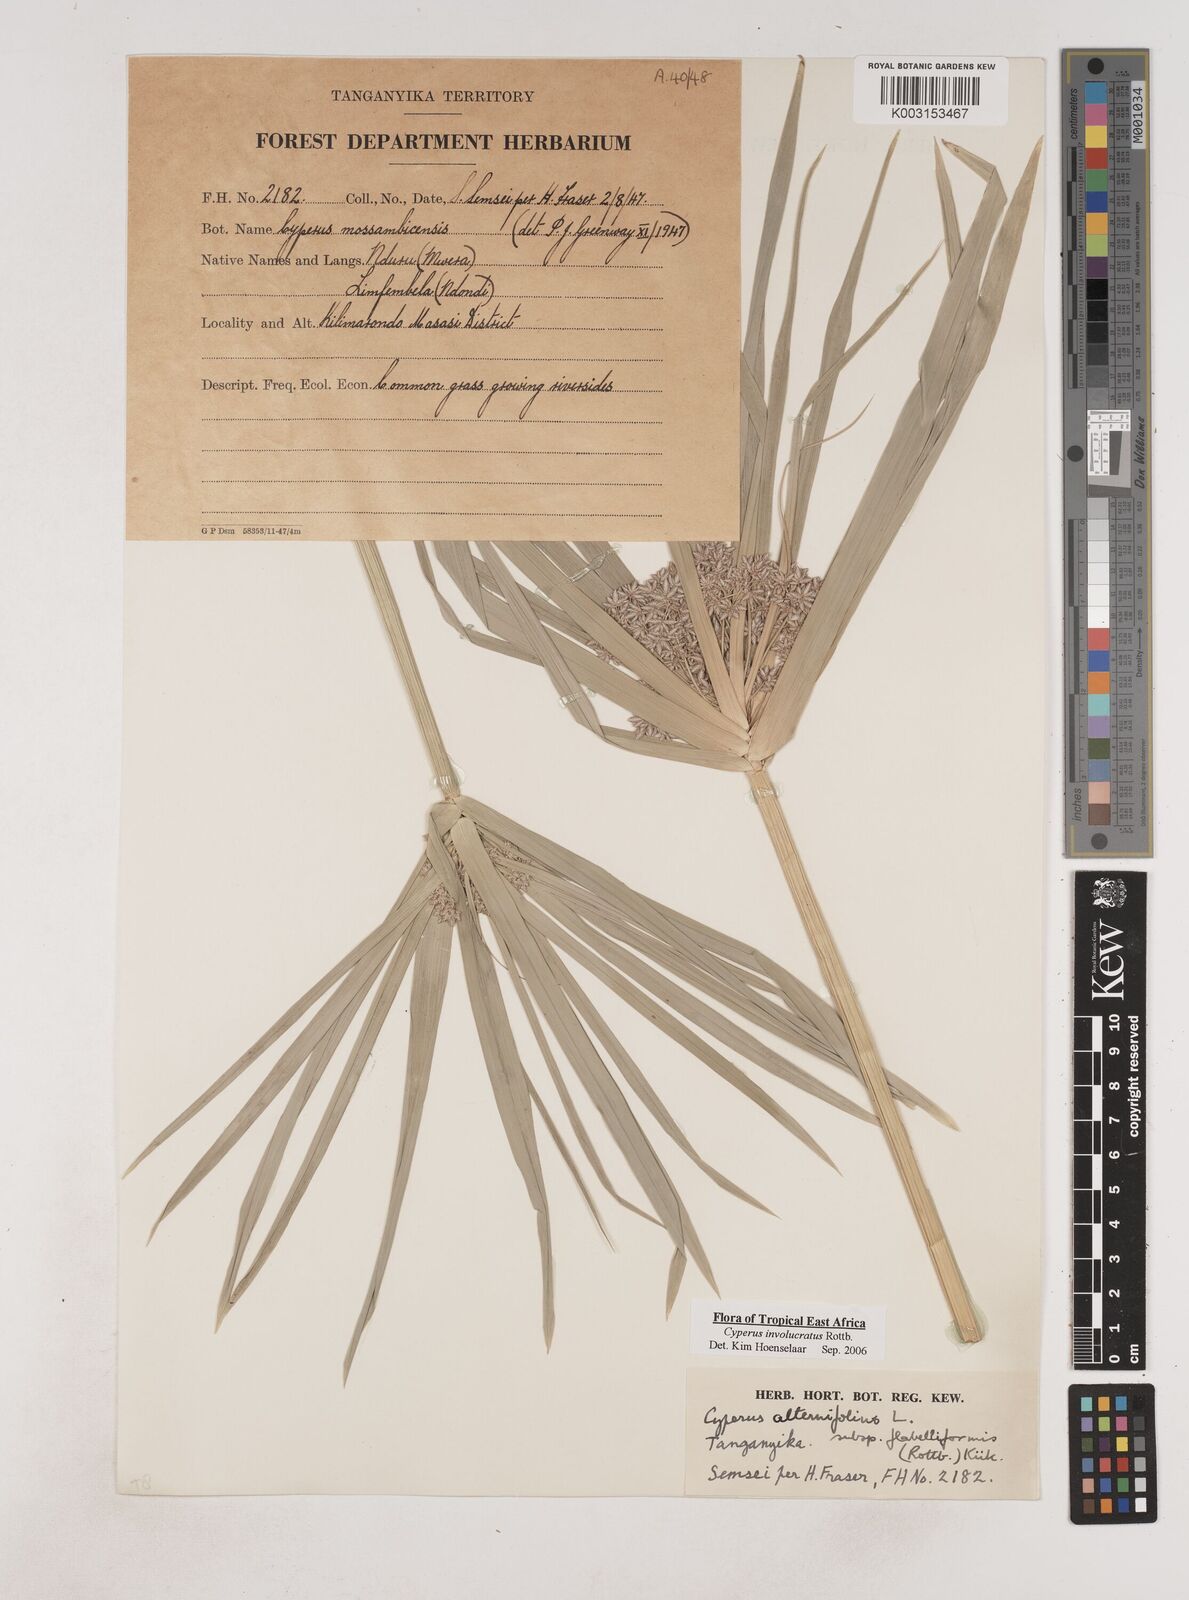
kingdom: Plantae
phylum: Tracheophyta
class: Liliopsida
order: Poales
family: Cyperaceae
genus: Cyperus
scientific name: Cyperus alternifolius
